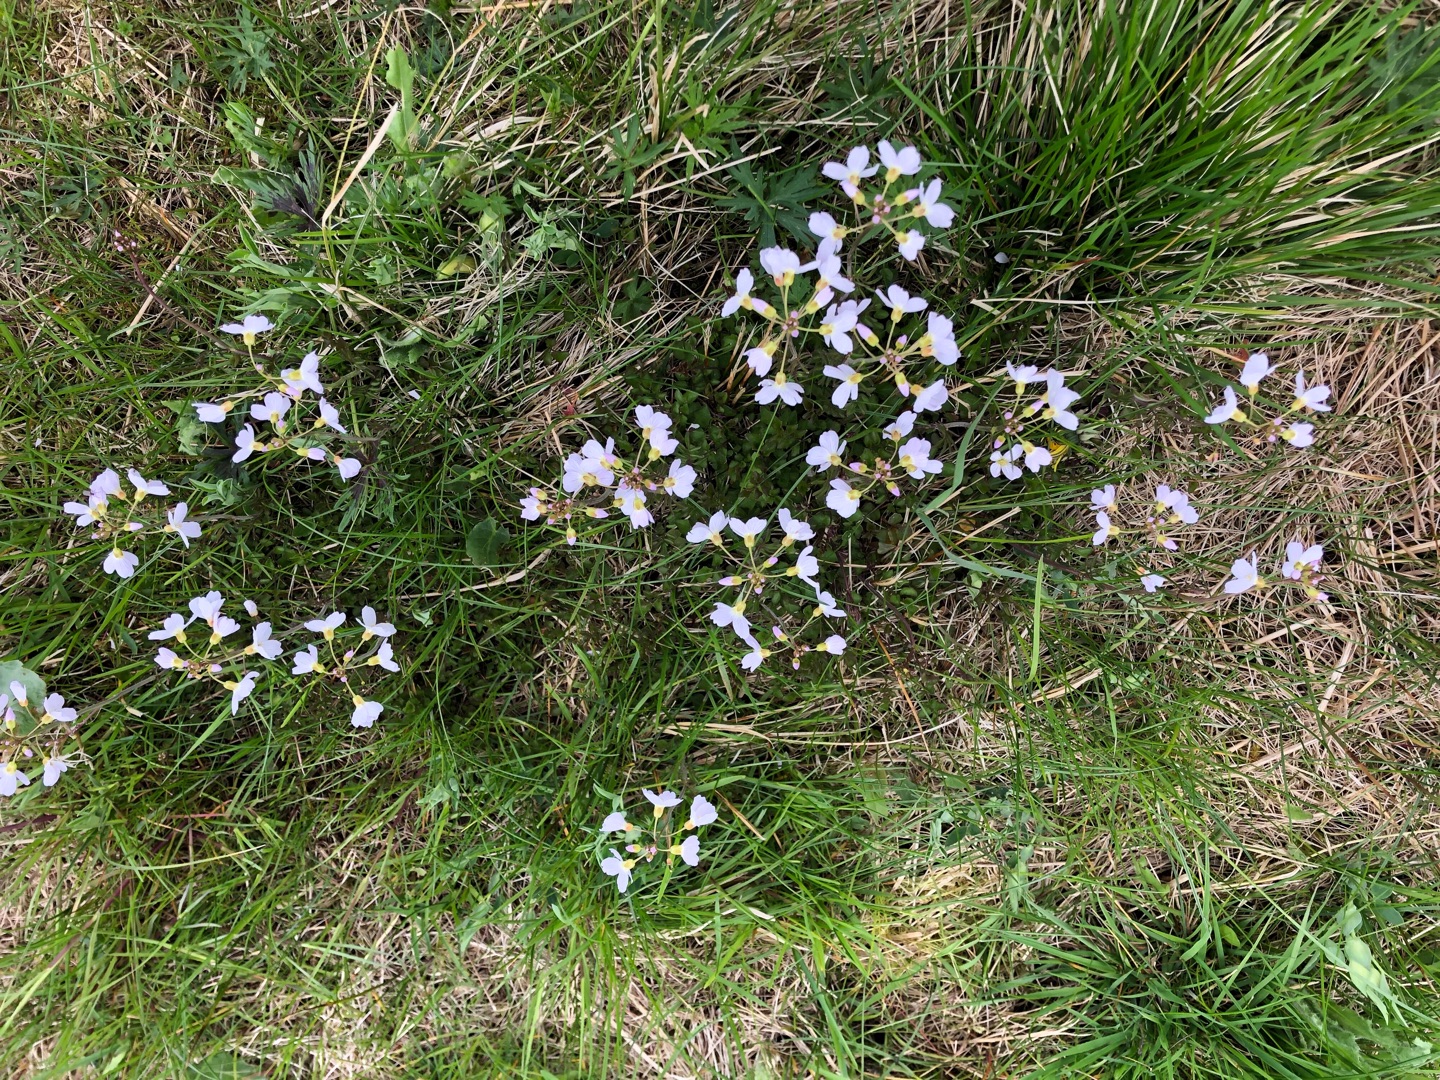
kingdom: Plantae
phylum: Tracheophyta
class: Magnoliopsida
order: Brassicales
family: Brassicaceae
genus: Cardamine
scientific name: Cardamine pratensis
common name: Engkarse
